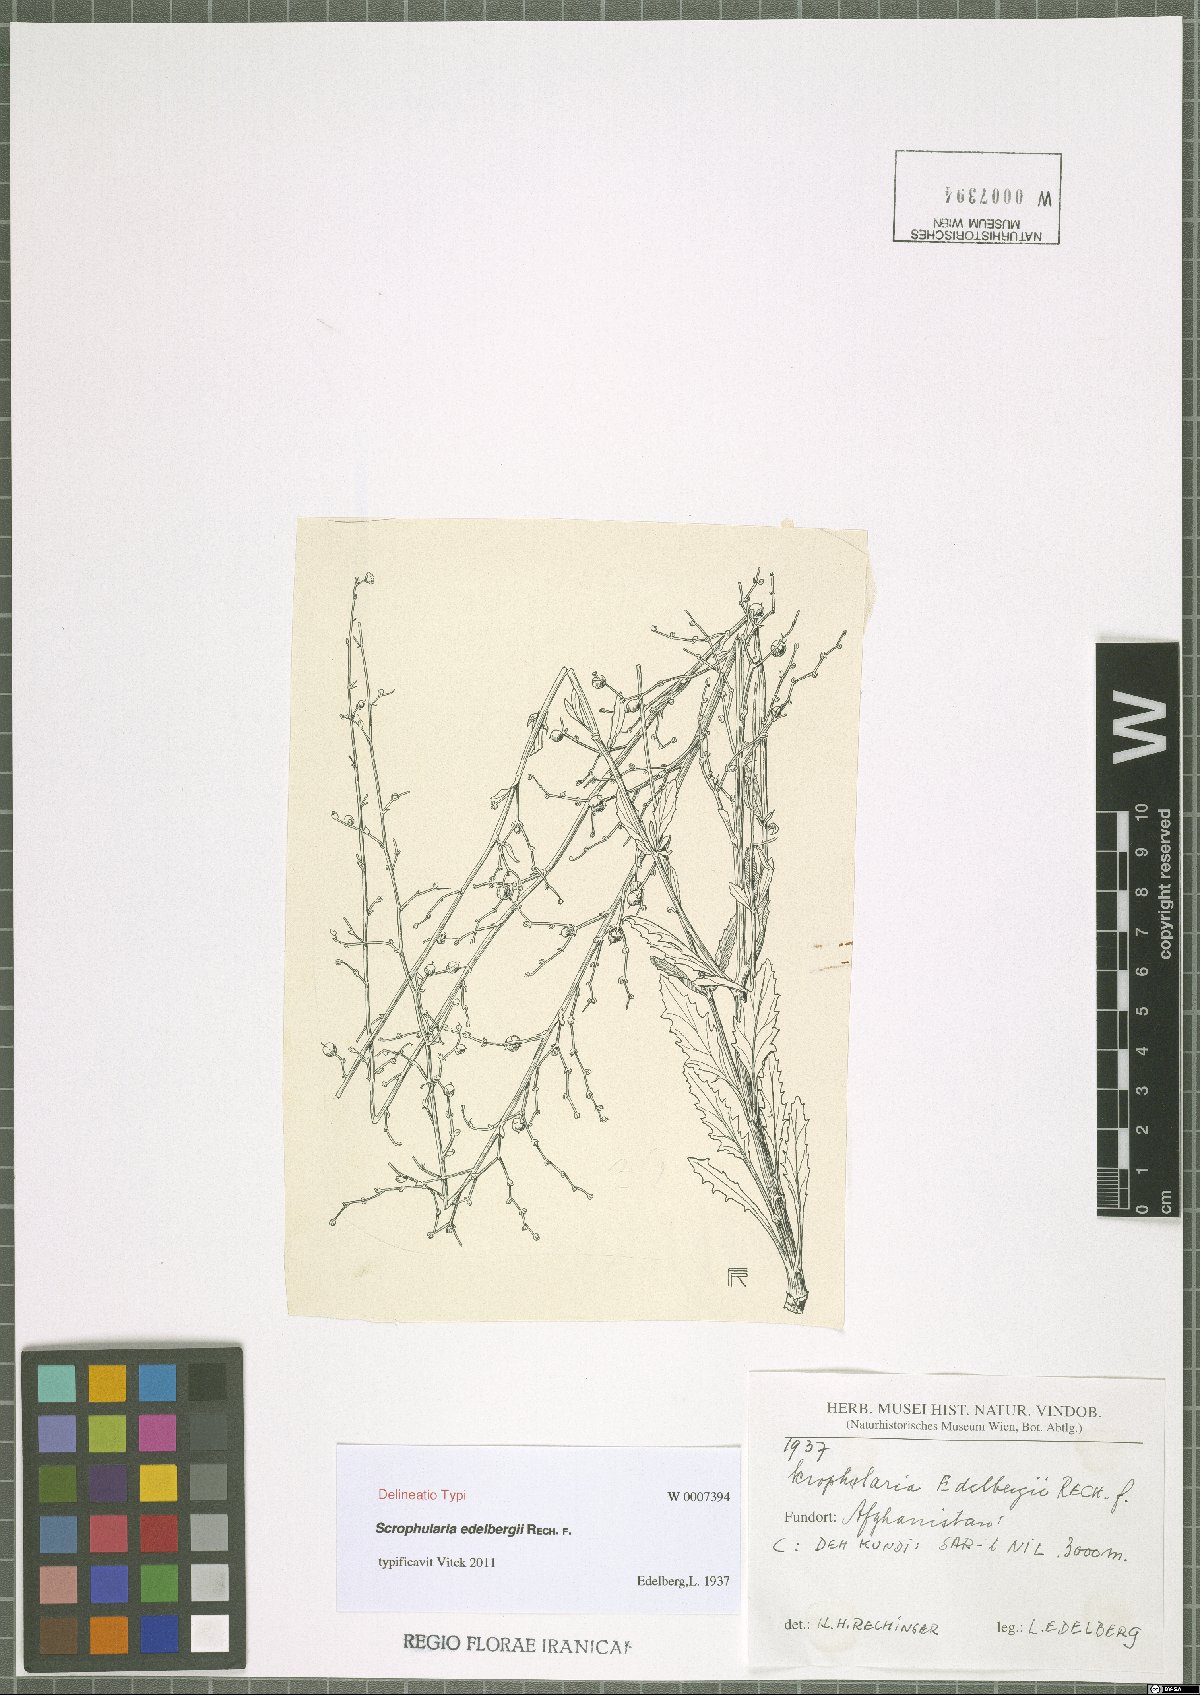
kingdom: Plantae
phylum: Tracheophyta
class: Magnoliopsida
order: Lamiales
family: Scrophulariaceae
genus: Scrophularia
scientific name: Scrophularia edelbergii
